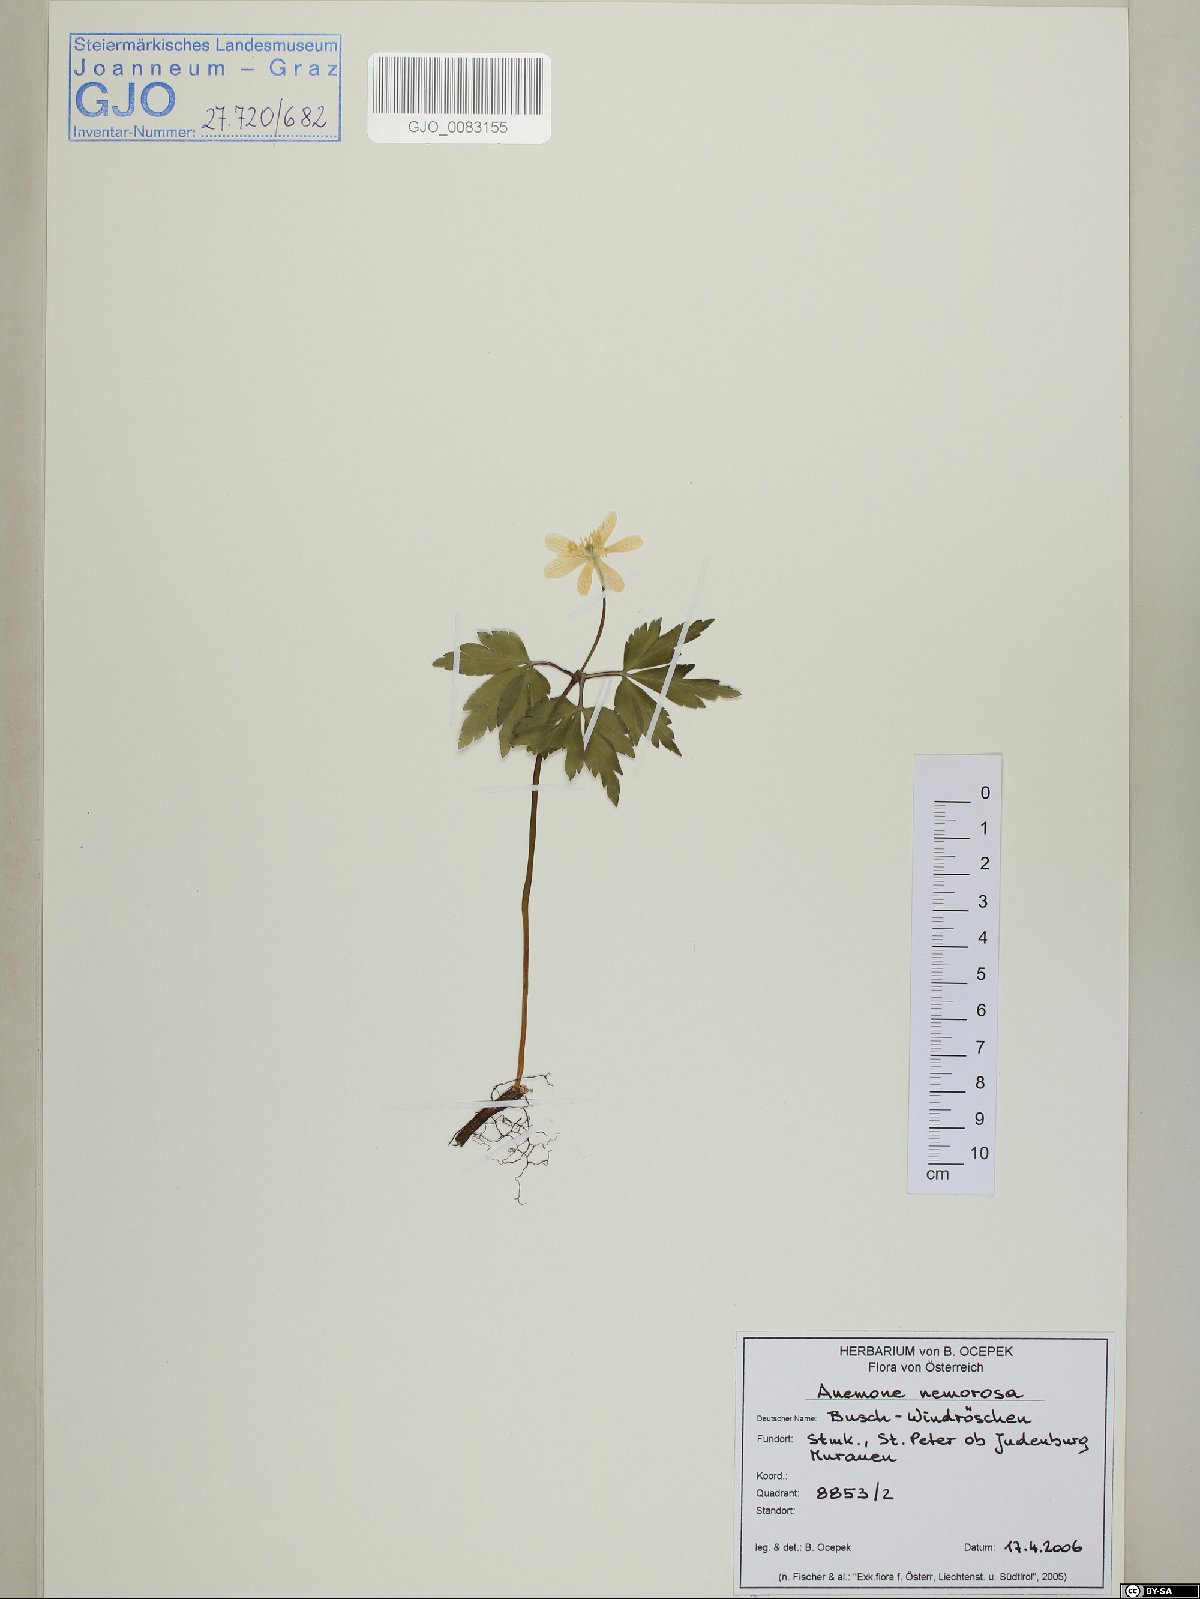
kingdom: Plantae
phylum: Tracheophyta
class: Magnoliopsida
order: Ranunculales
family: Ranunculaceae
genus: Anemone
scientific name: Anemone nemorosa
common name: Wood anemone
